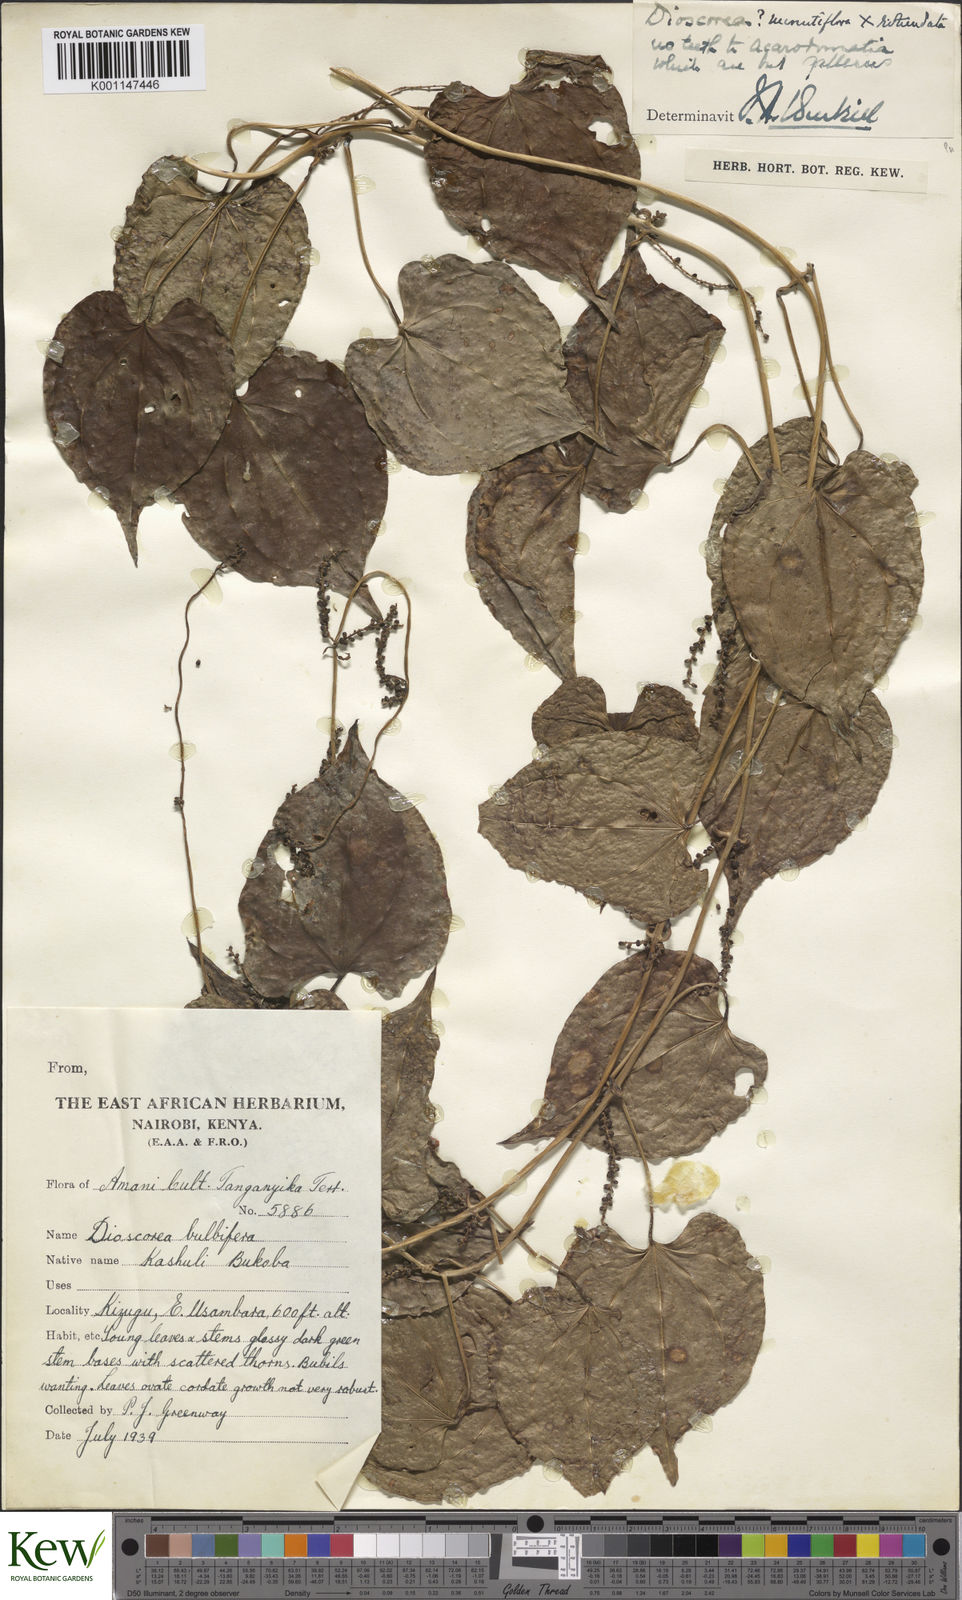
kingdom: Plantae
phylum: Tracheophyta
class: Liliopsida
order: Dioscoreales
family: Dioscoreaceae
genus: Dioscorea
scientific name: Dioscorea minutiflora
